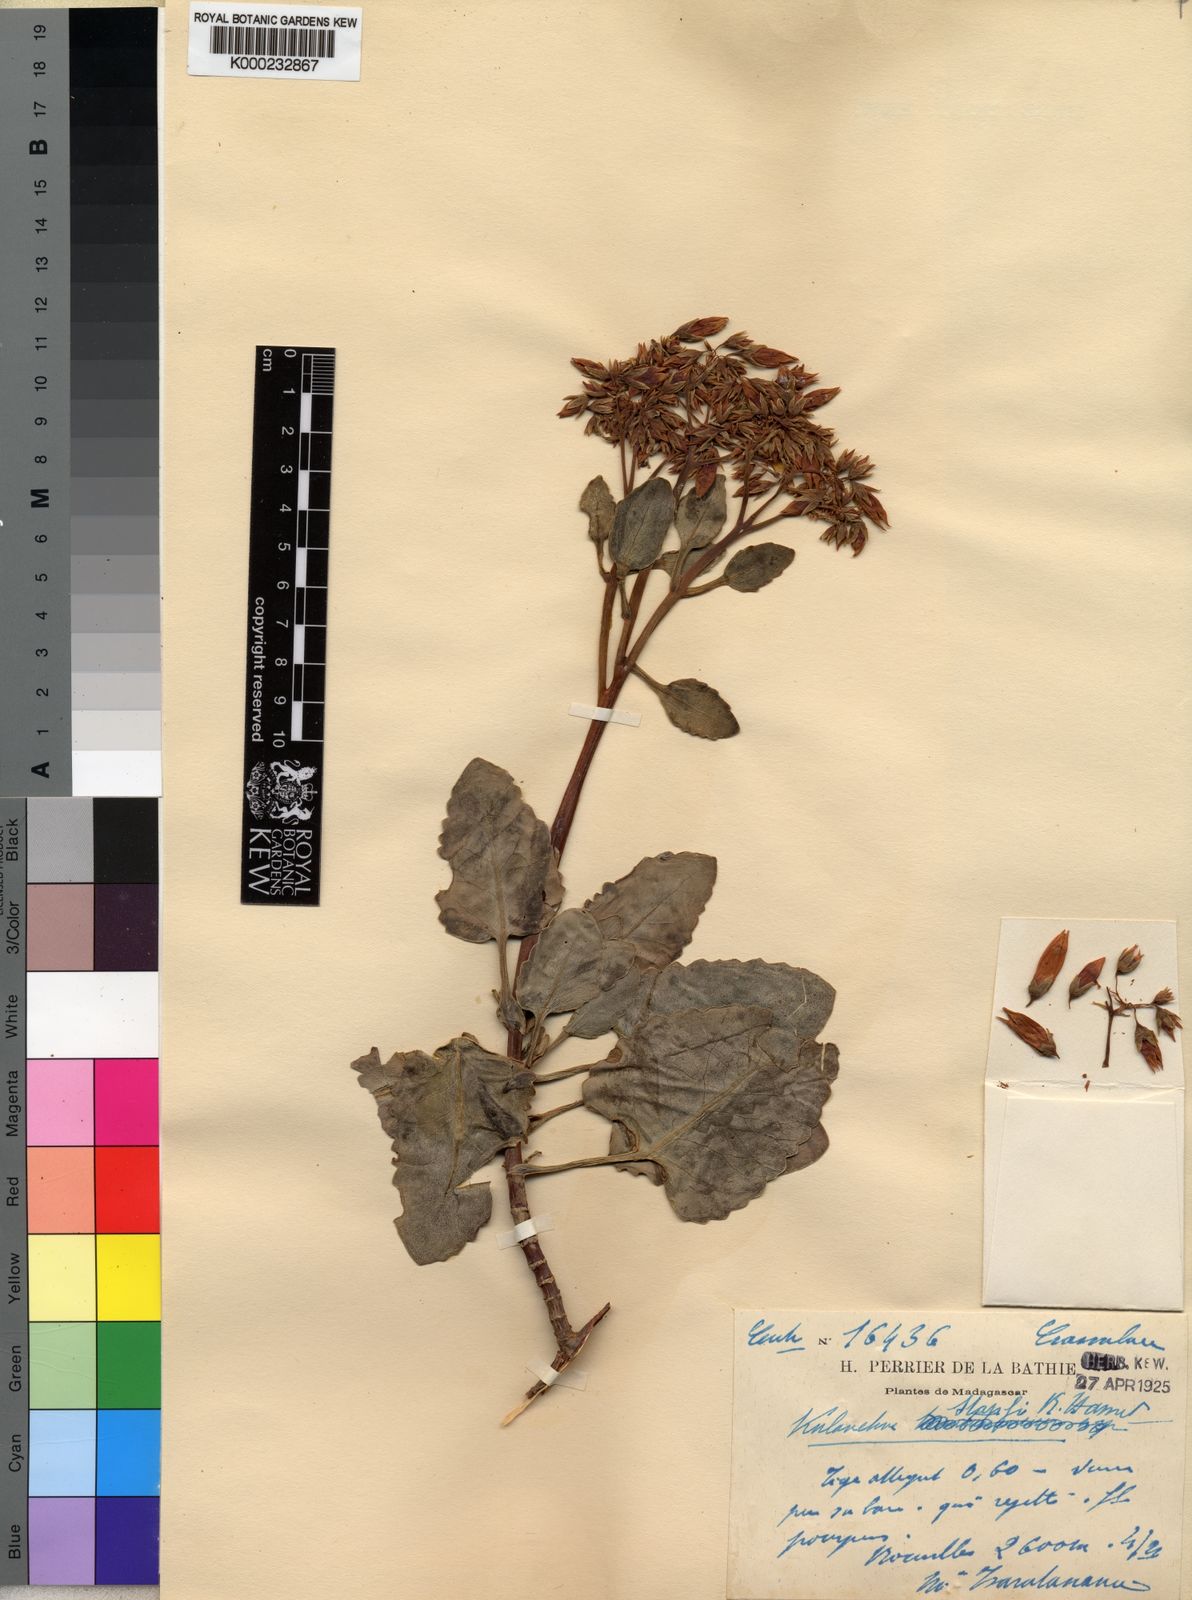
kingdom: Plantae
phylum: Tracheophyta
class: Magnoliopsida
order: Saxifragales
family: Crassulaceae
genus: Kalanchoe
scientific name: Kalanchoe peltata
